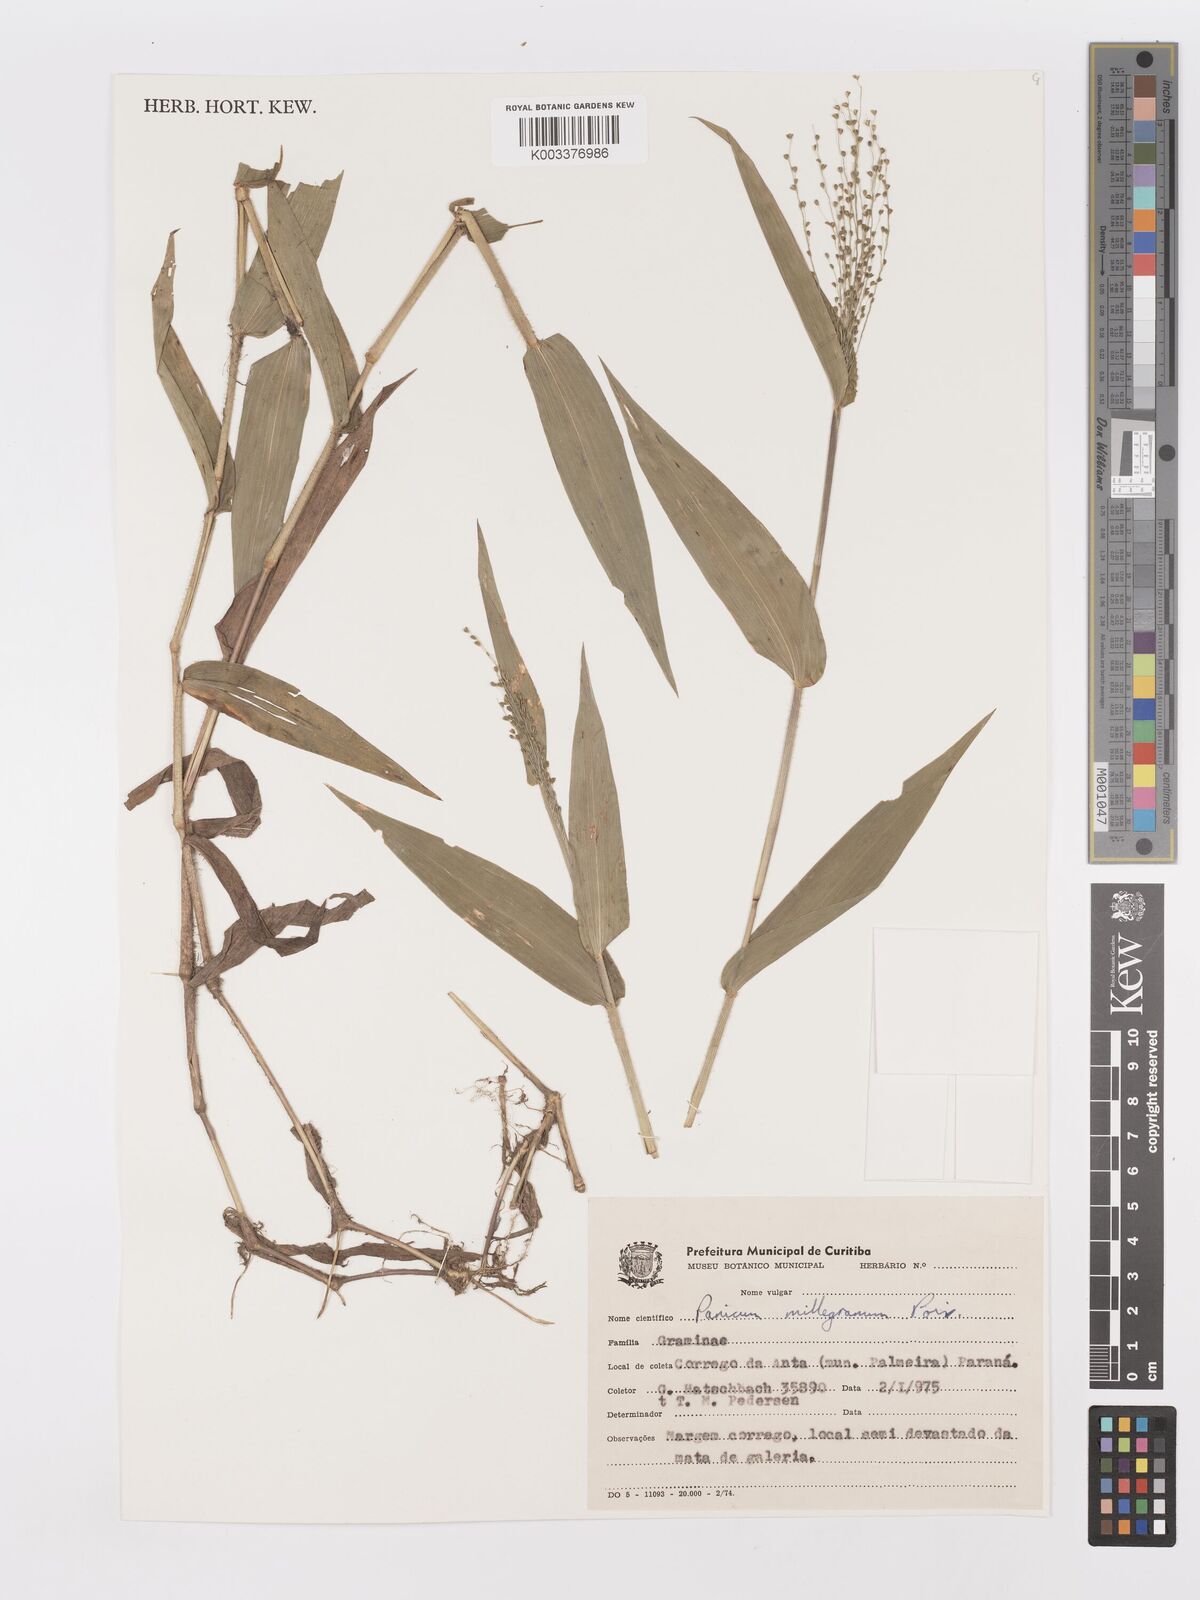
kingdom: Plantae
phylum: Tracheophyta
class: Liliopsida
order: Poales
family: Poaceae
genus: Panicum
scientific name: Panicum millegrana
